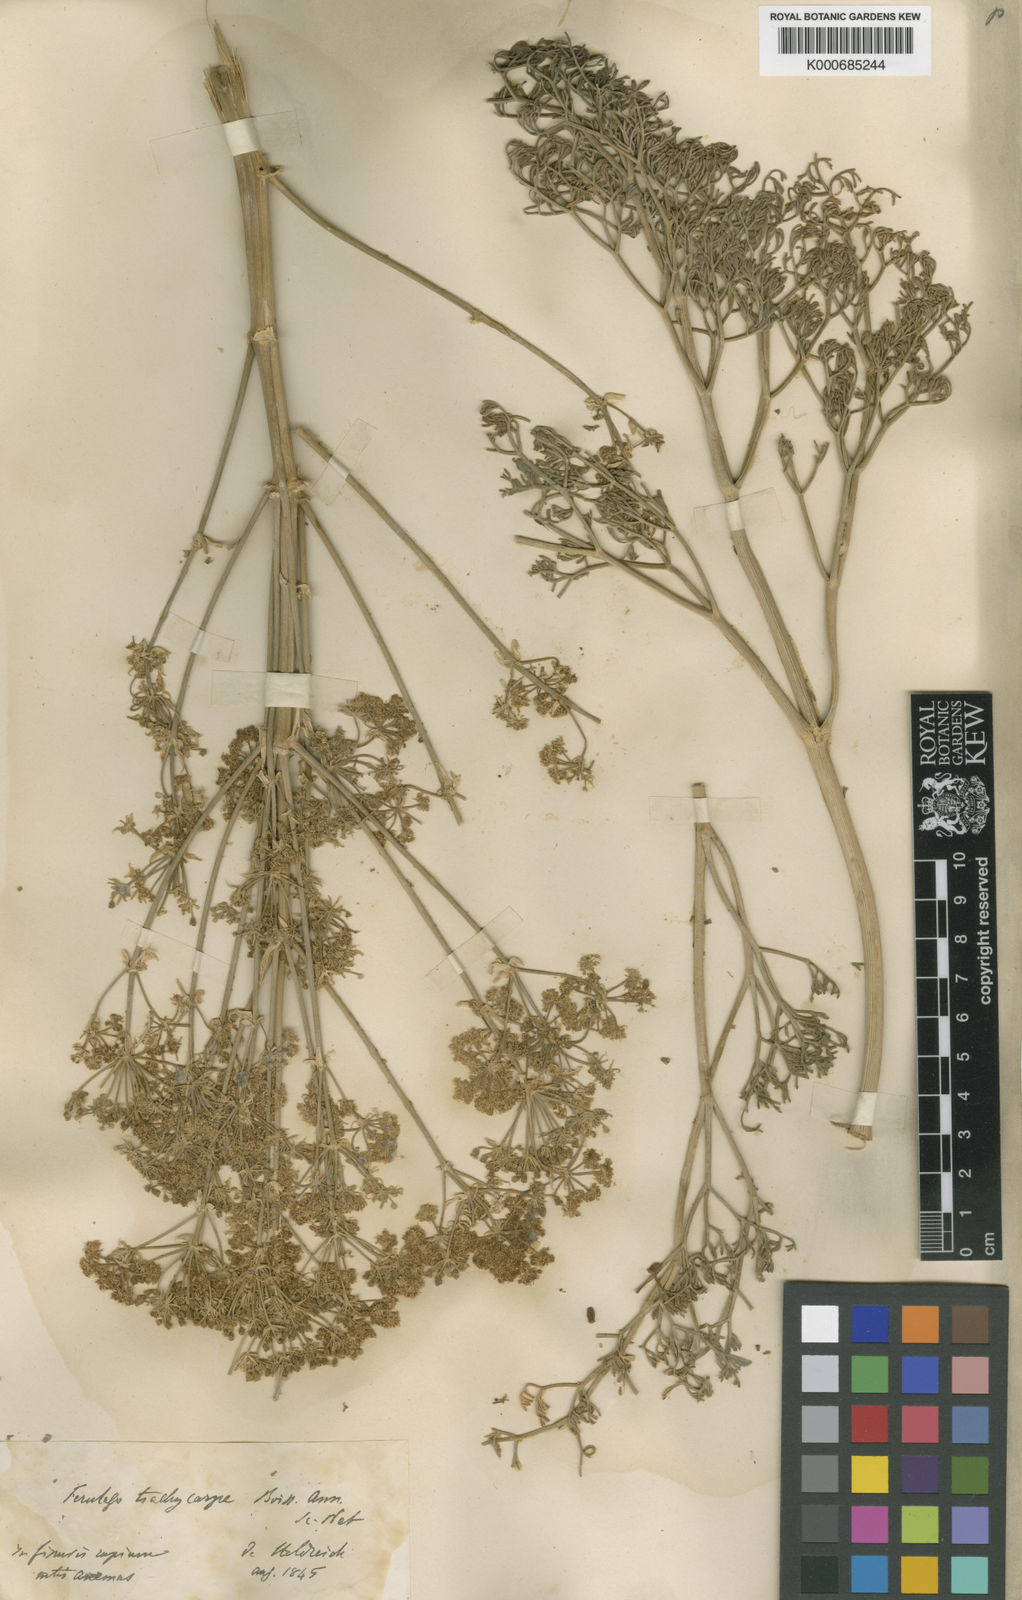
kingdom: Plantae
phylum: Tracheophyta
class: Magnoliopsida
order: Apiales
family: Apiaceae
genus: Ferulago
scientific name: Ferulago trachycarpa
